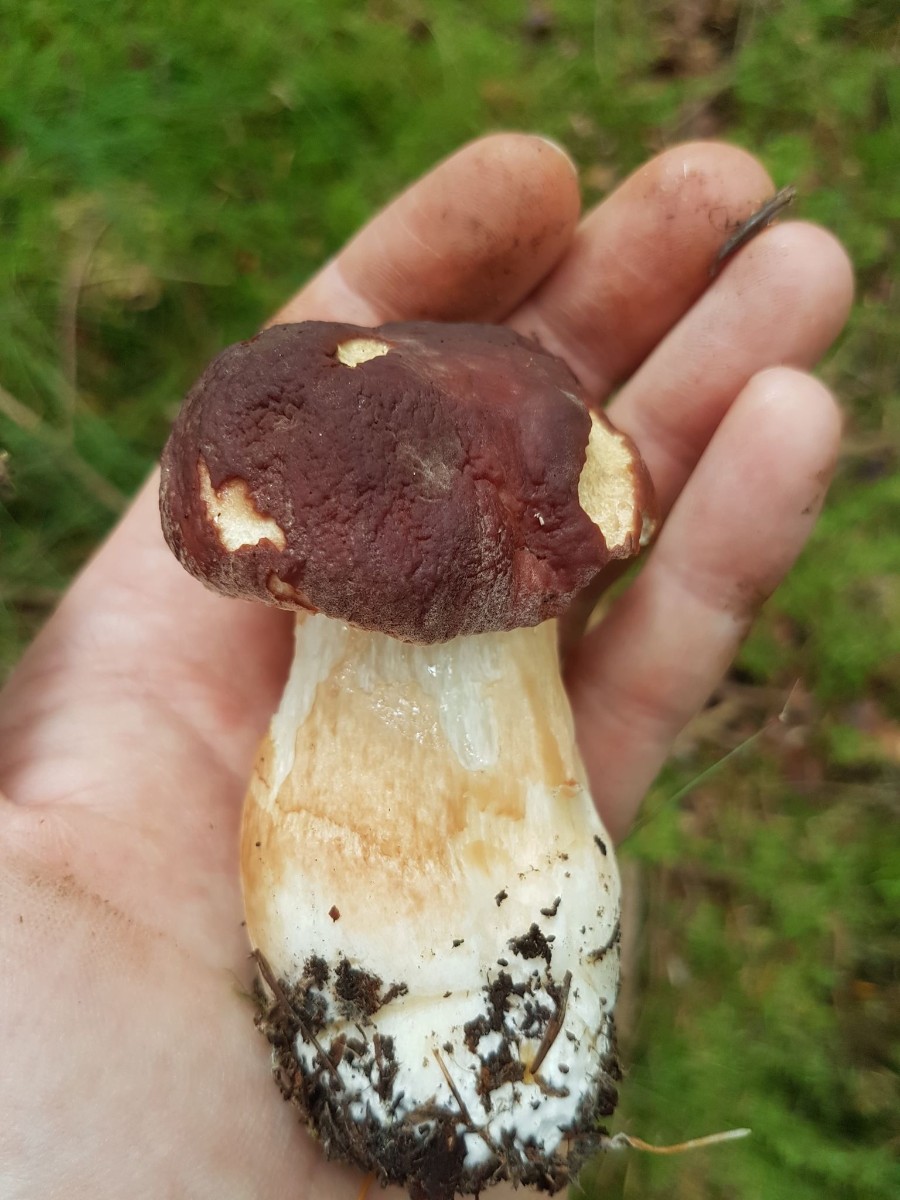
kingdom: Fungi
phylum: Basidiomycota
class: Agaricomycetes
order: Boletales
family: Boletaceae
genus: Boletus
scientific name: Boletus pinophilus
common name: rødbrun rørhat
